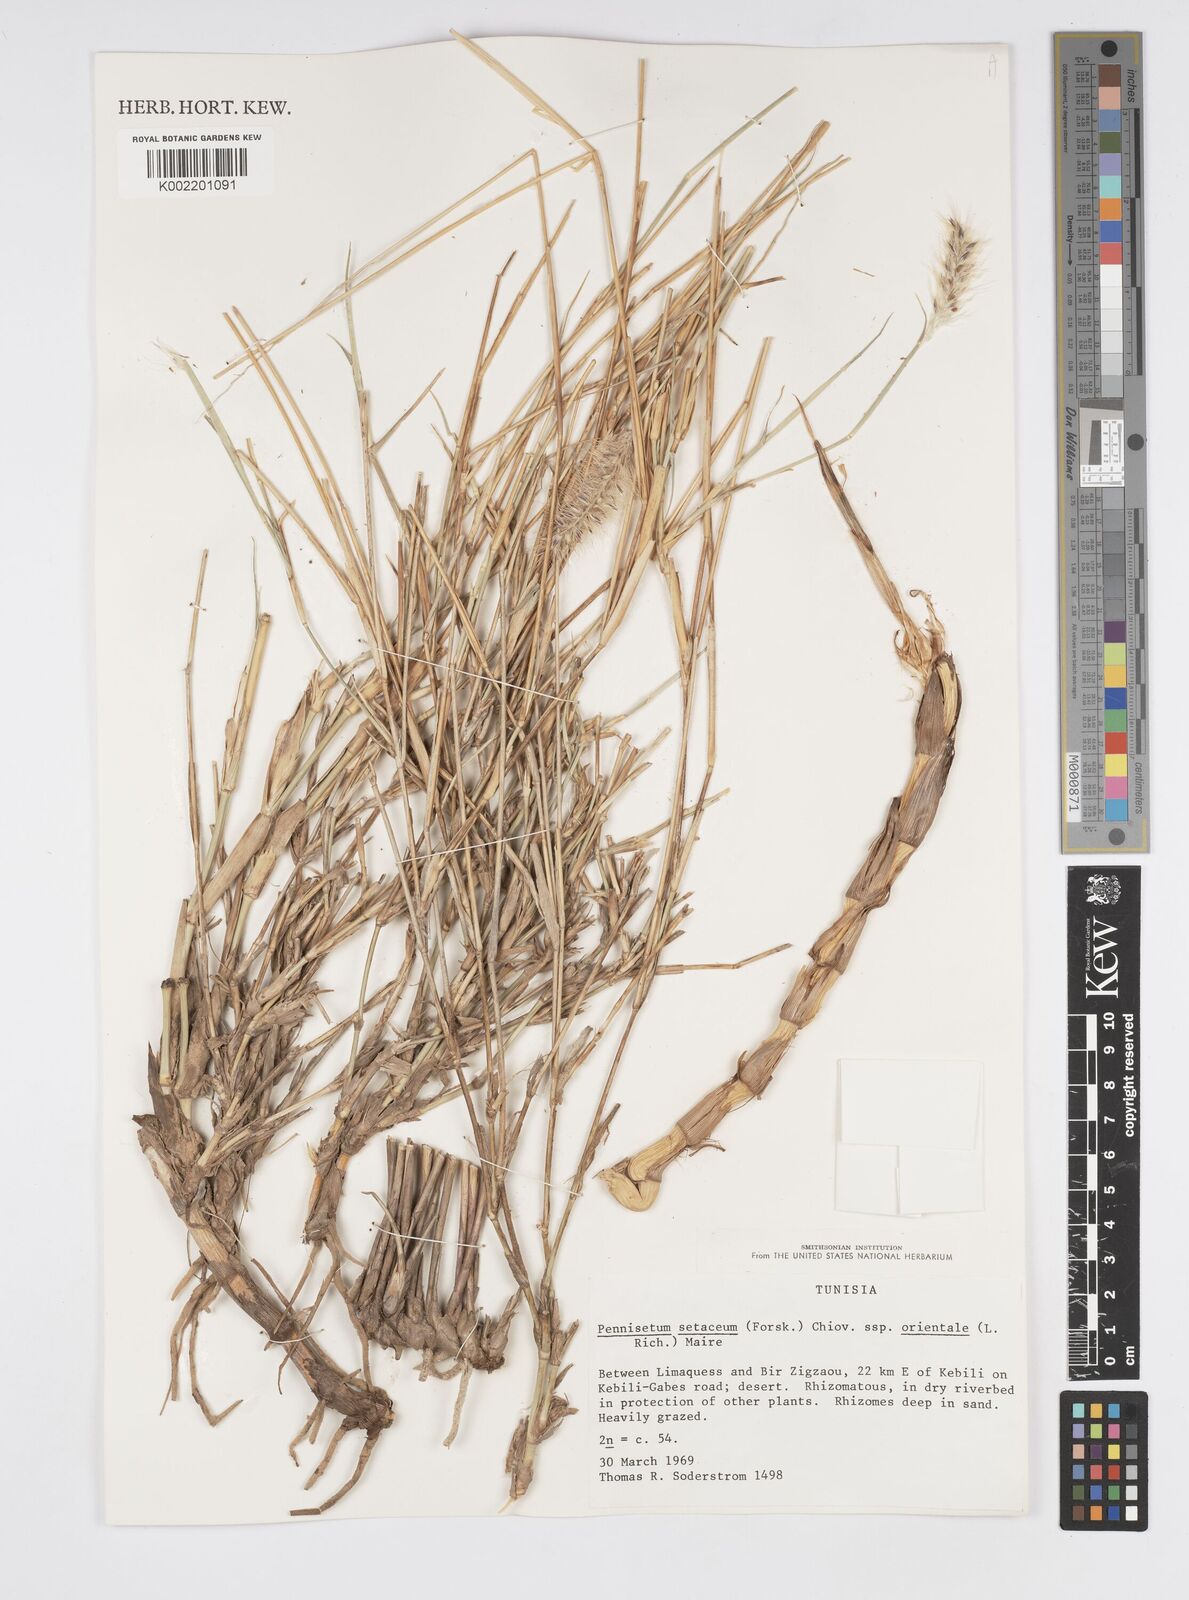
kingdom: Plantae
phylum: Tracheophyta
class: Liliopsida
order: Poales
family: Poaceae
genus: Cenchrus
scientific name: Cenchrus setaceus
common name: Crimson fountaingrass
